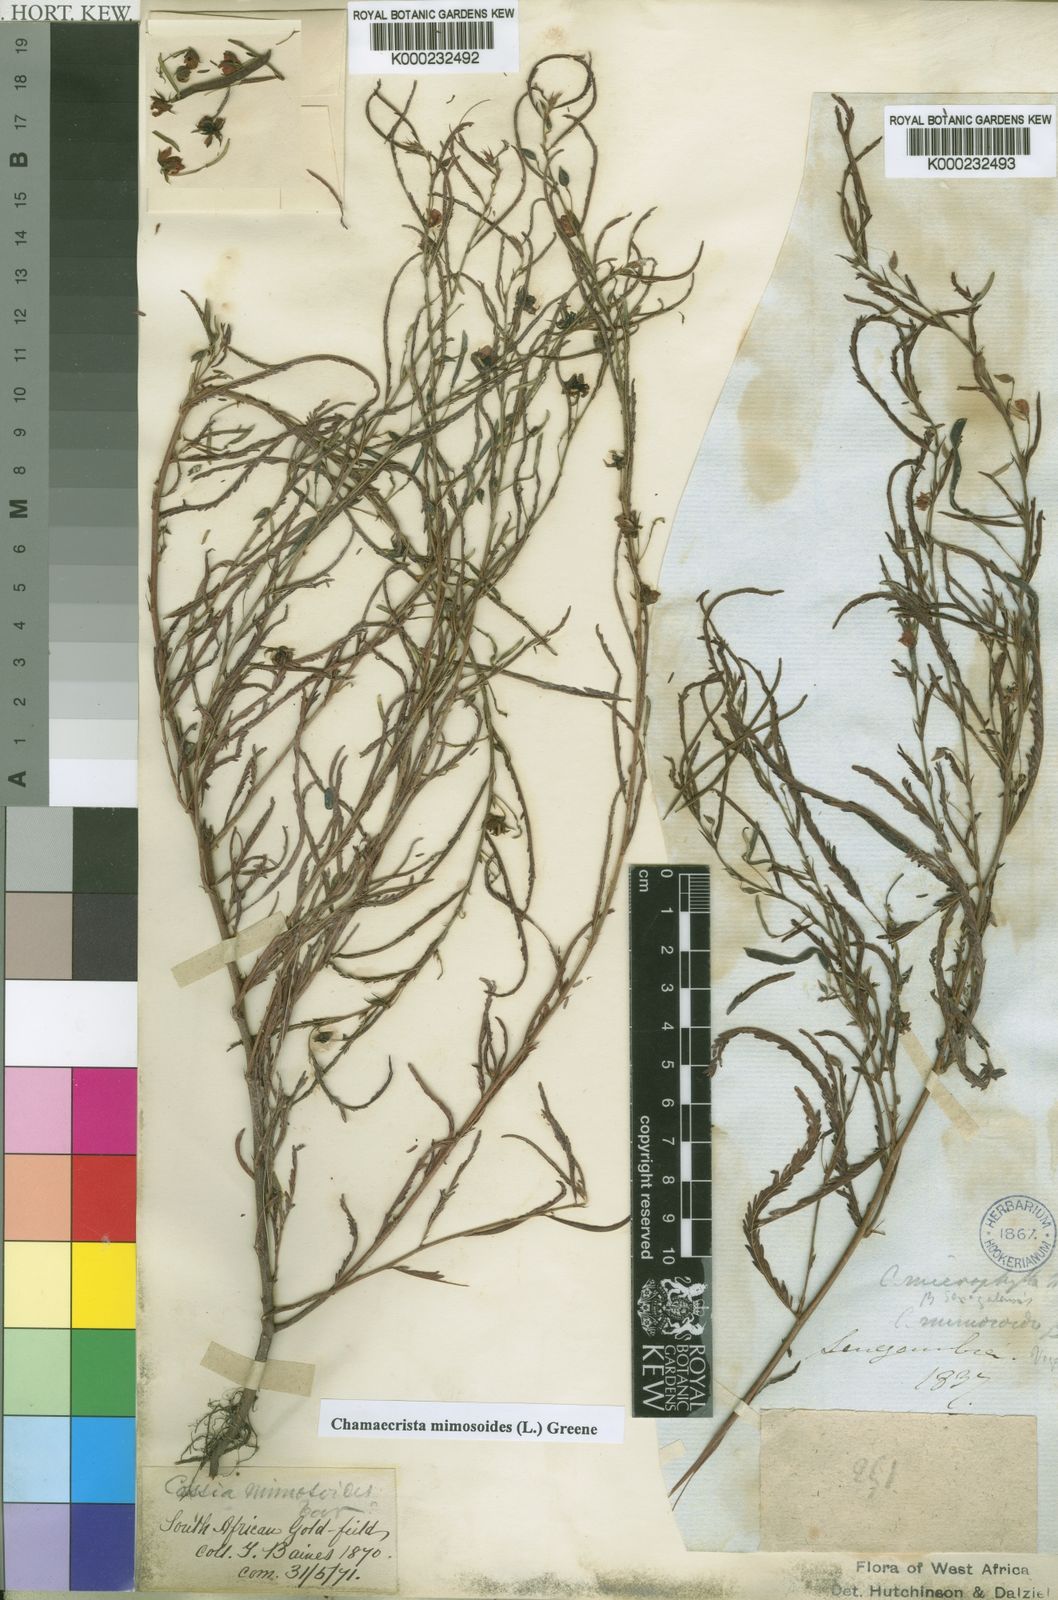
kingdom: Plantae
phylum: Tracheophyta
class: Magnoliopsida
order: Fabales
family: Fabaceae
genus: Chamaecrista
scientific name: Chamaecrista mimosoides
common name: Fish-bone cassia
